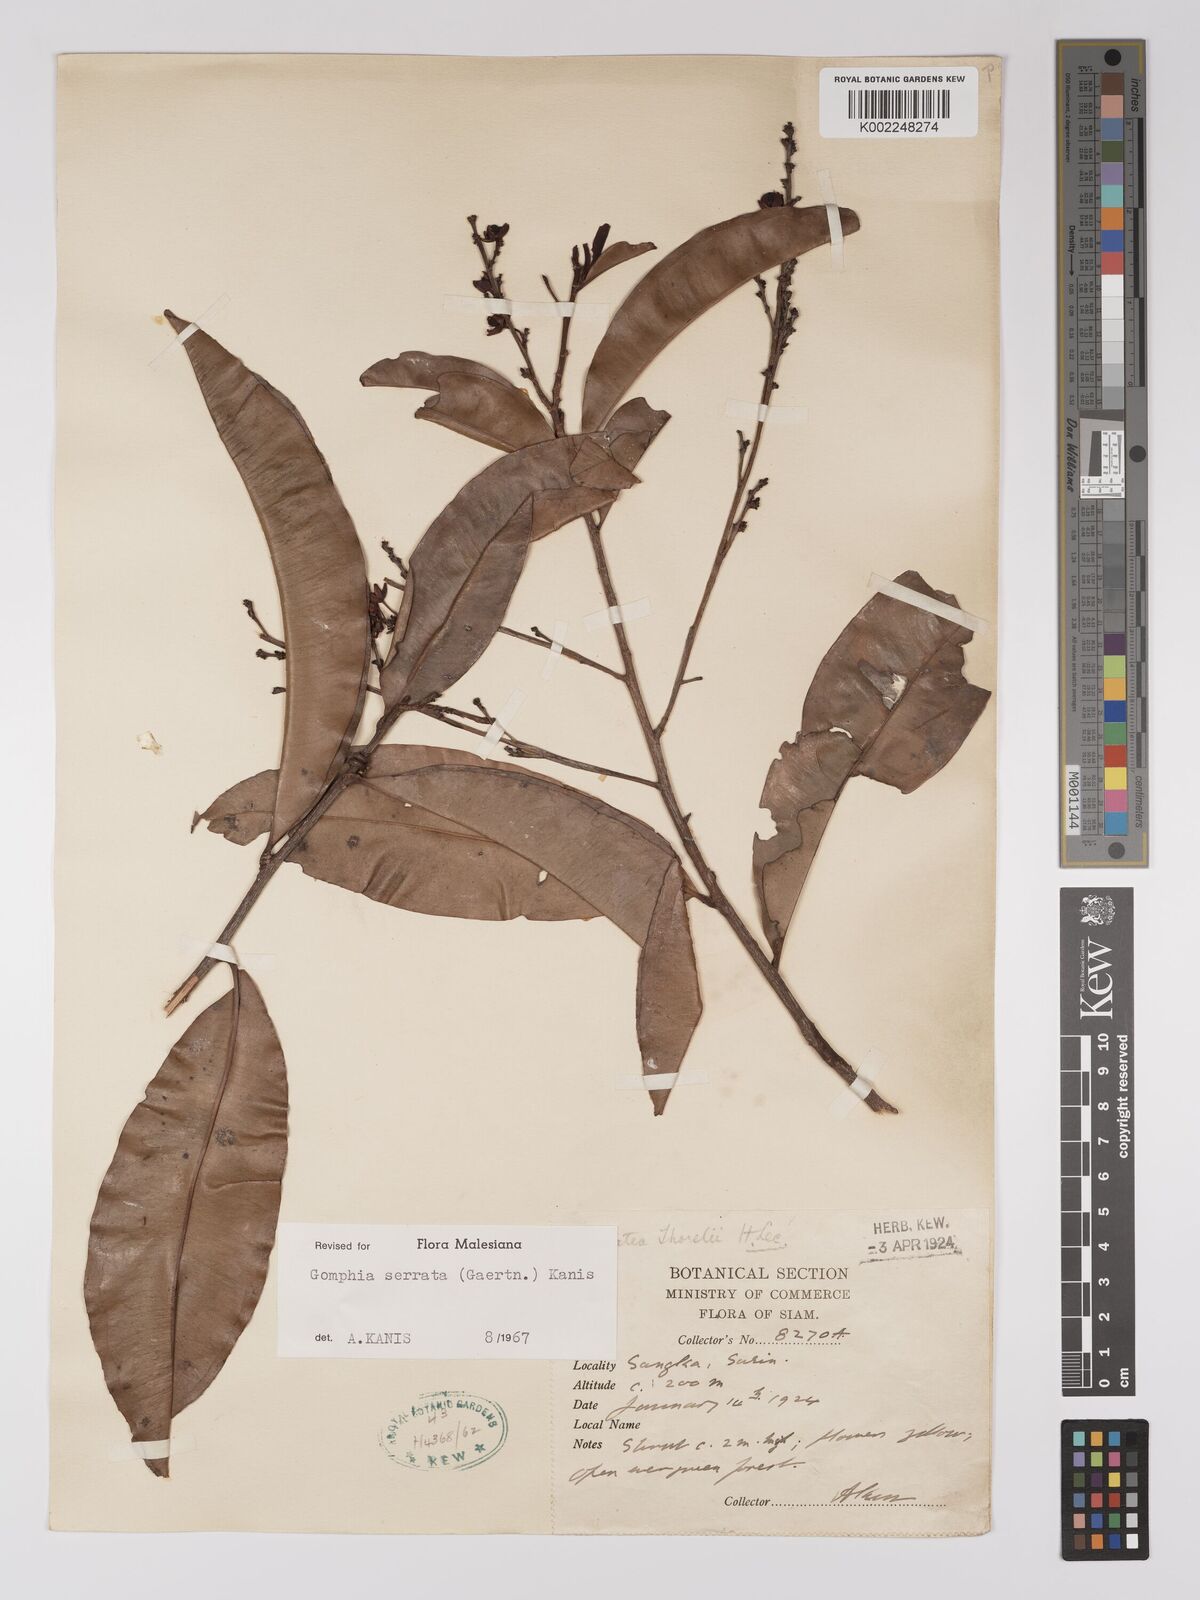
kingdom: Plantae
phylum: Tracheophyta
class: Magnoliopsida
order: Malpighiales
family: Ochnaceae
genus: Gomphia
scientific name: Gomphia serrata
